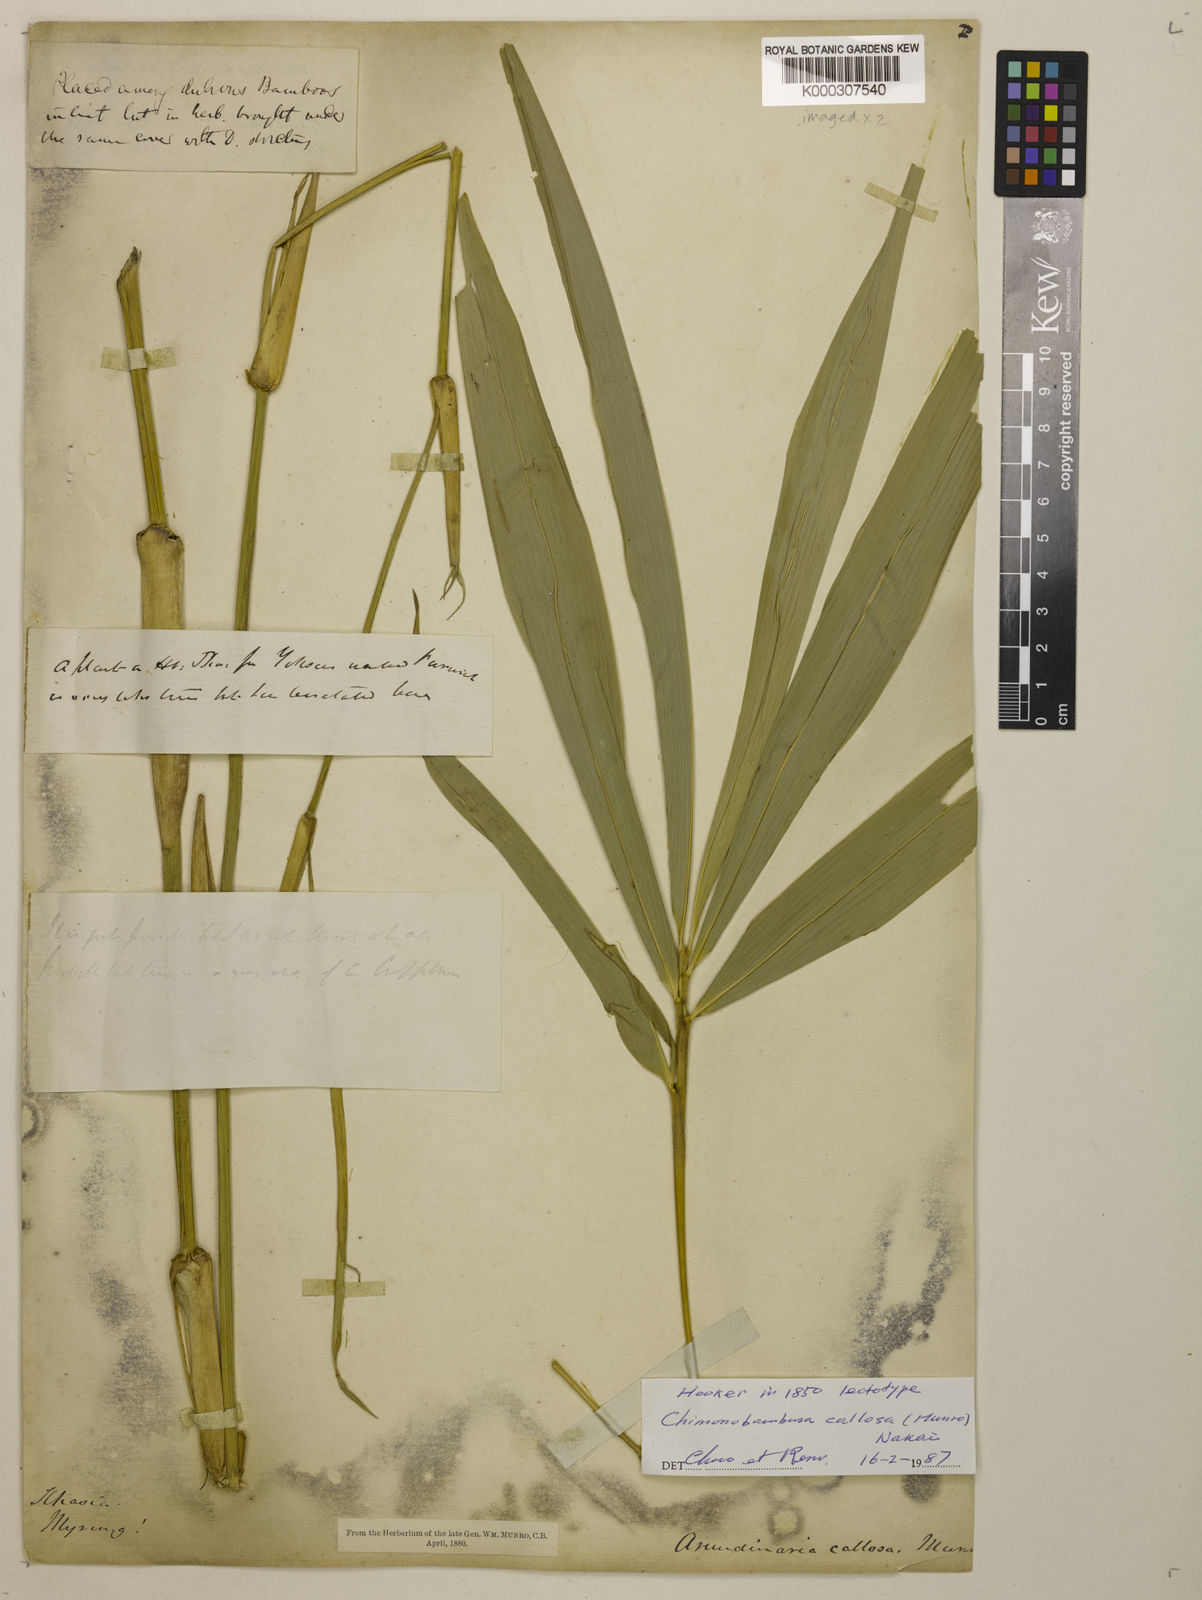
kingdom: Plantae
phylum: Tracheophyta
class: Liliopsida
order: Poales
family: Poaceae
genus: Chimonobambusa
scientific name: Chimonobambusa callosa
